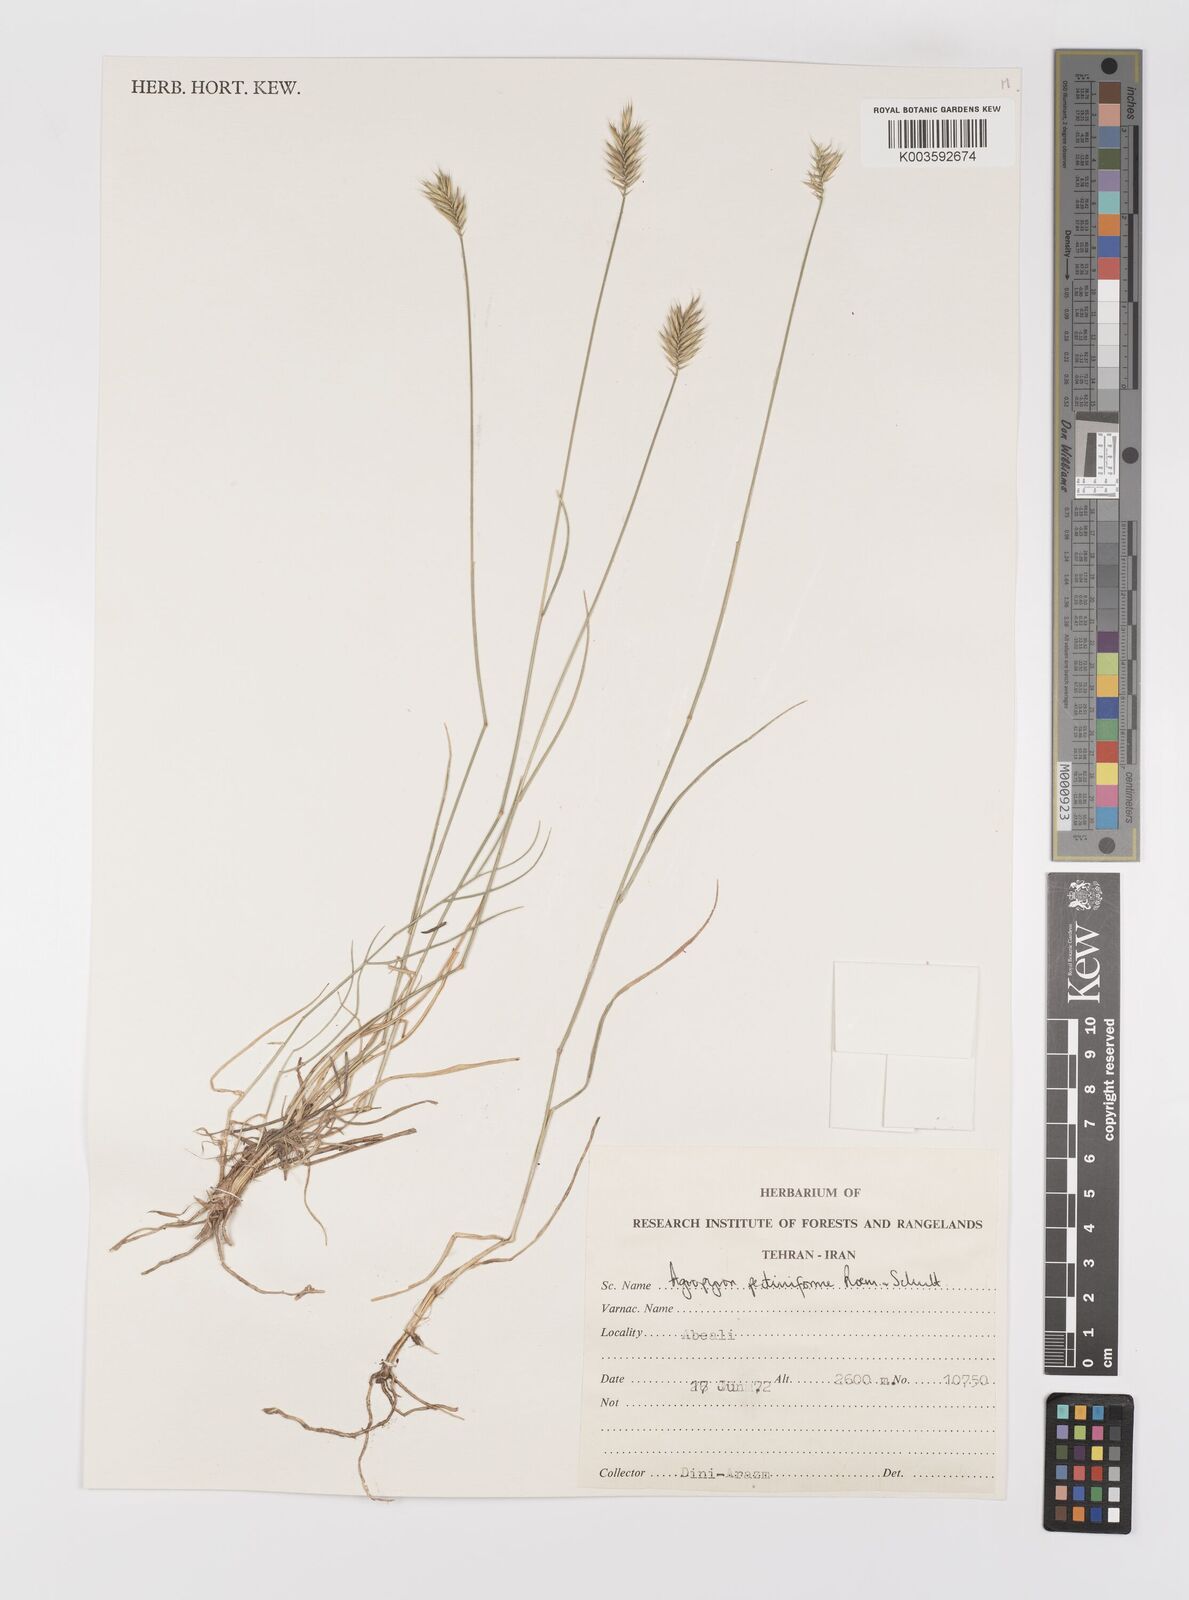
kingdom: Plantae
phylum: Tracheophyta
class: Liliopsida
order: Poales
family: Poaceae
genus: Agropyron
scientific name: Agropyron
